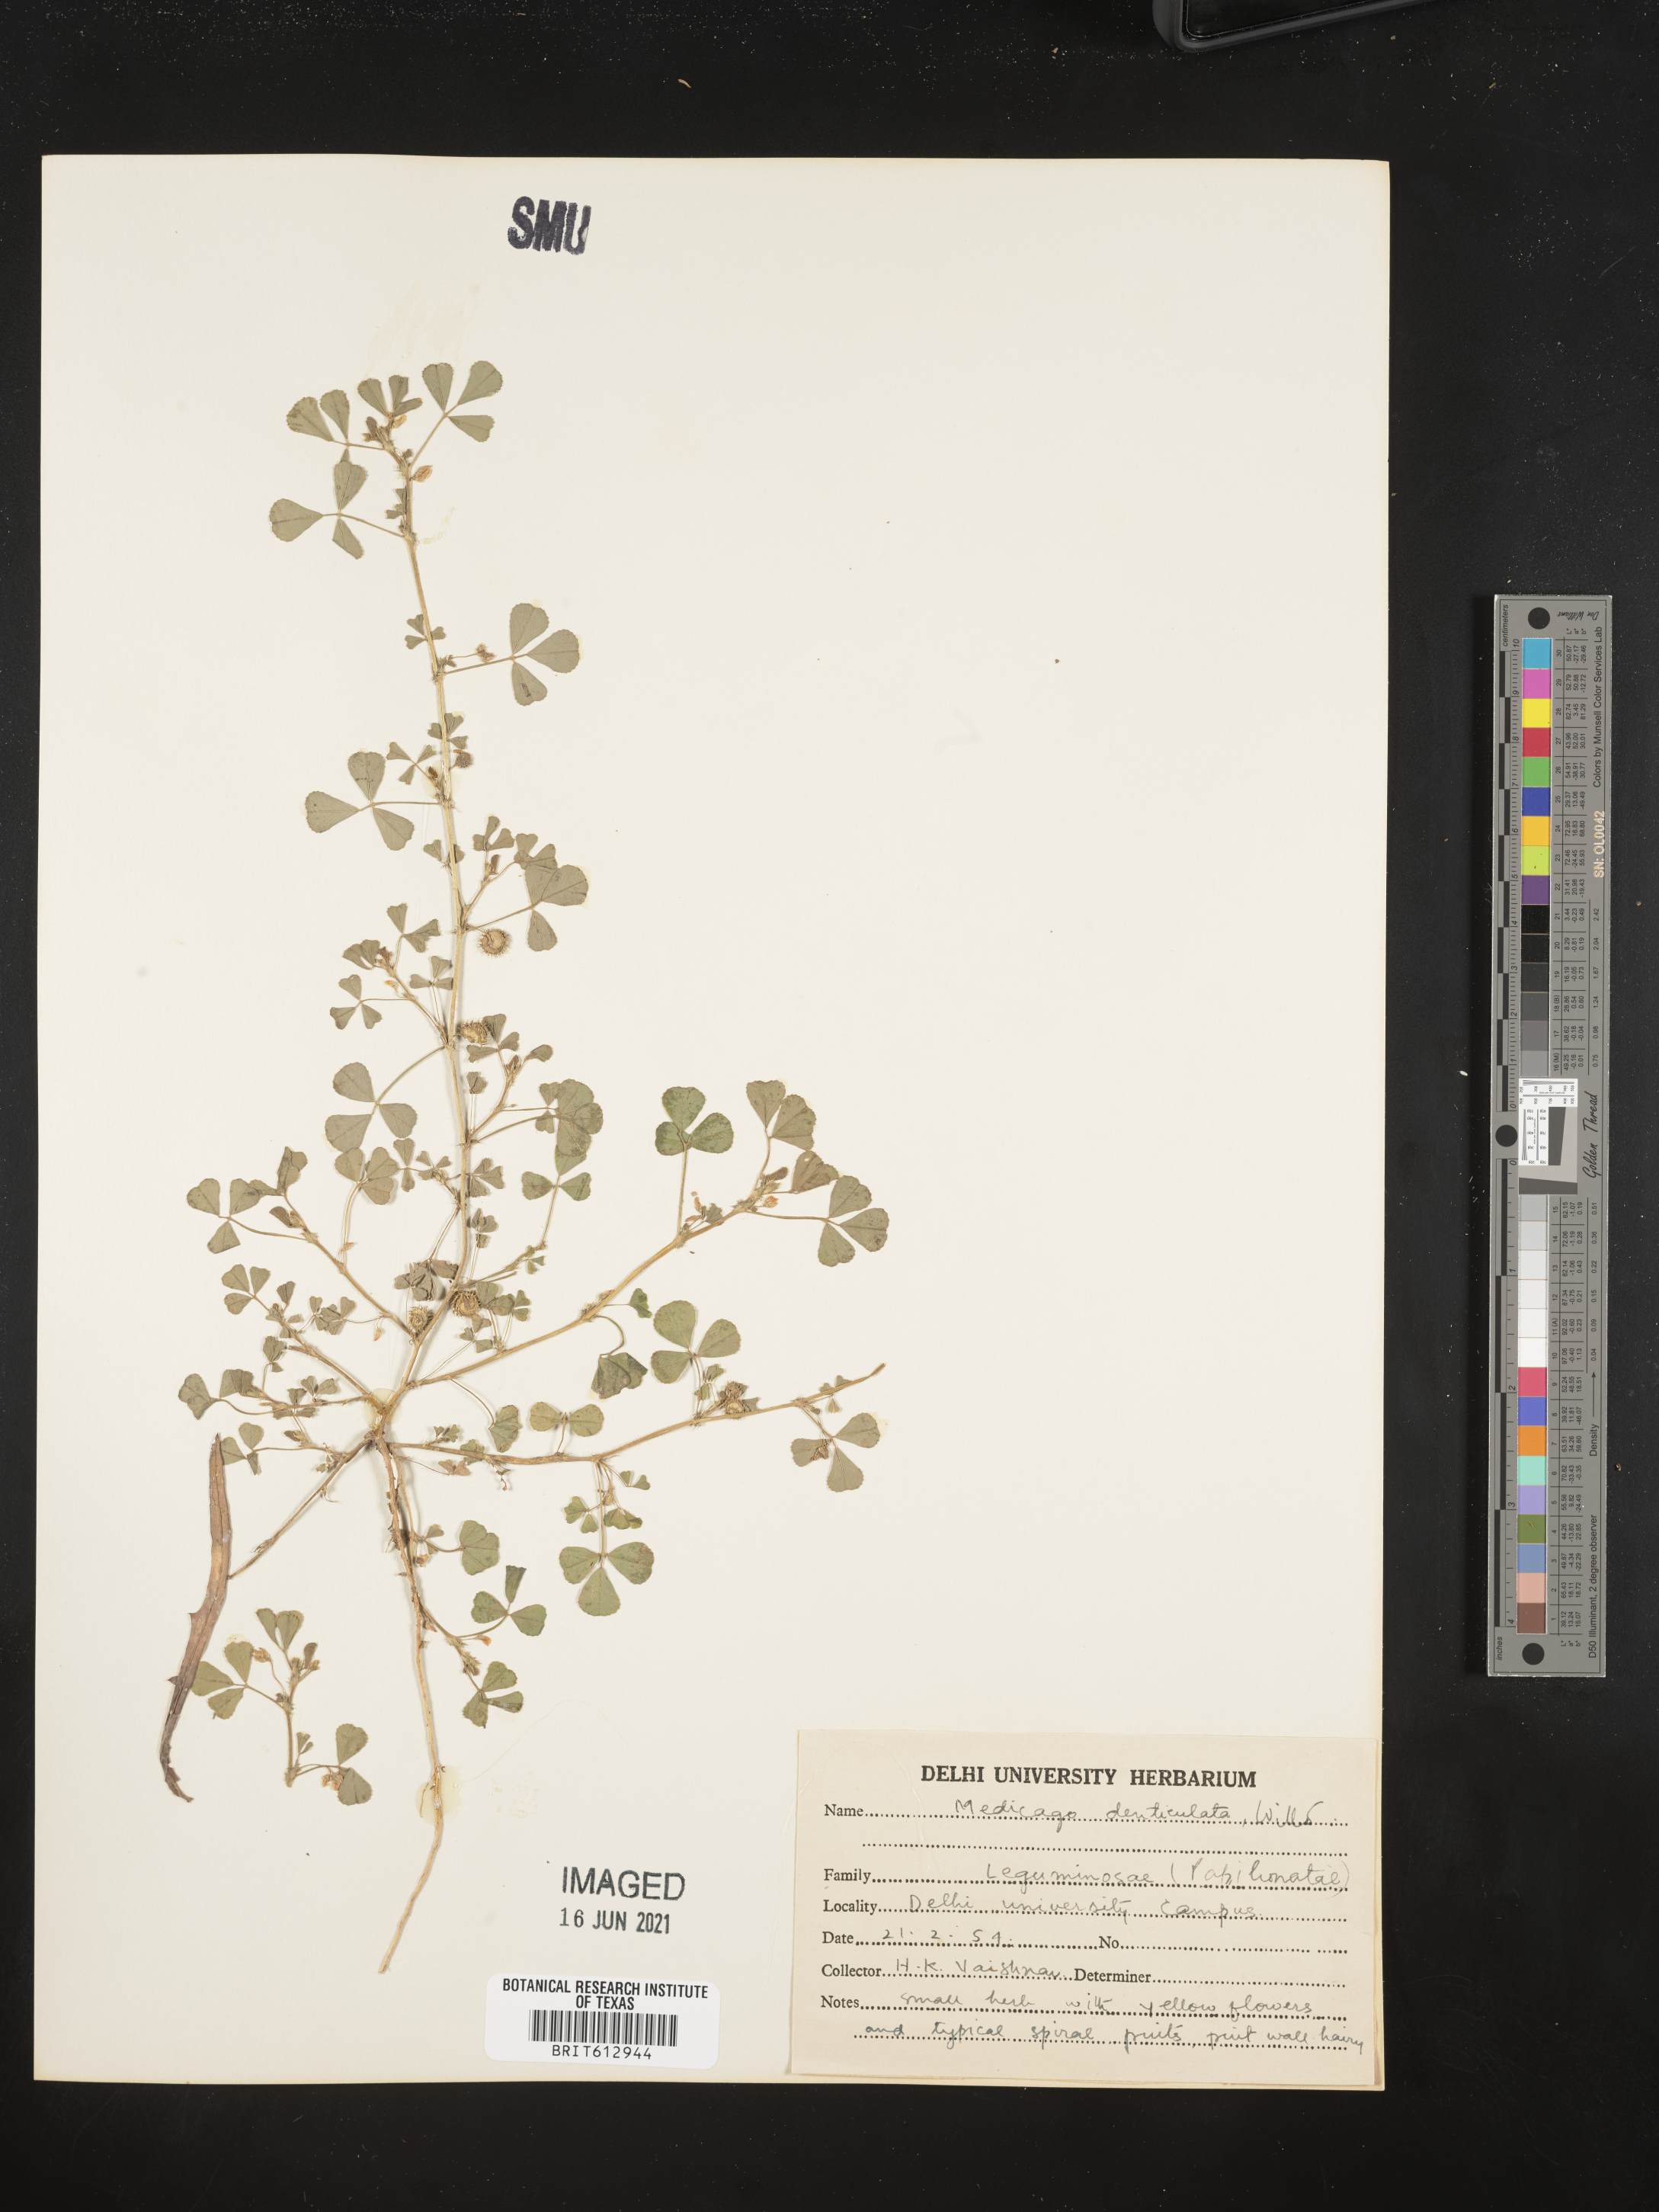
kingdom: Plantae
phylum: Tracheophyta
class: Magnoliopsida
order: Fabales
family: Fabaceae
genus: Medicago
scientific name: Medicago polymorpha
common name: Burclover
